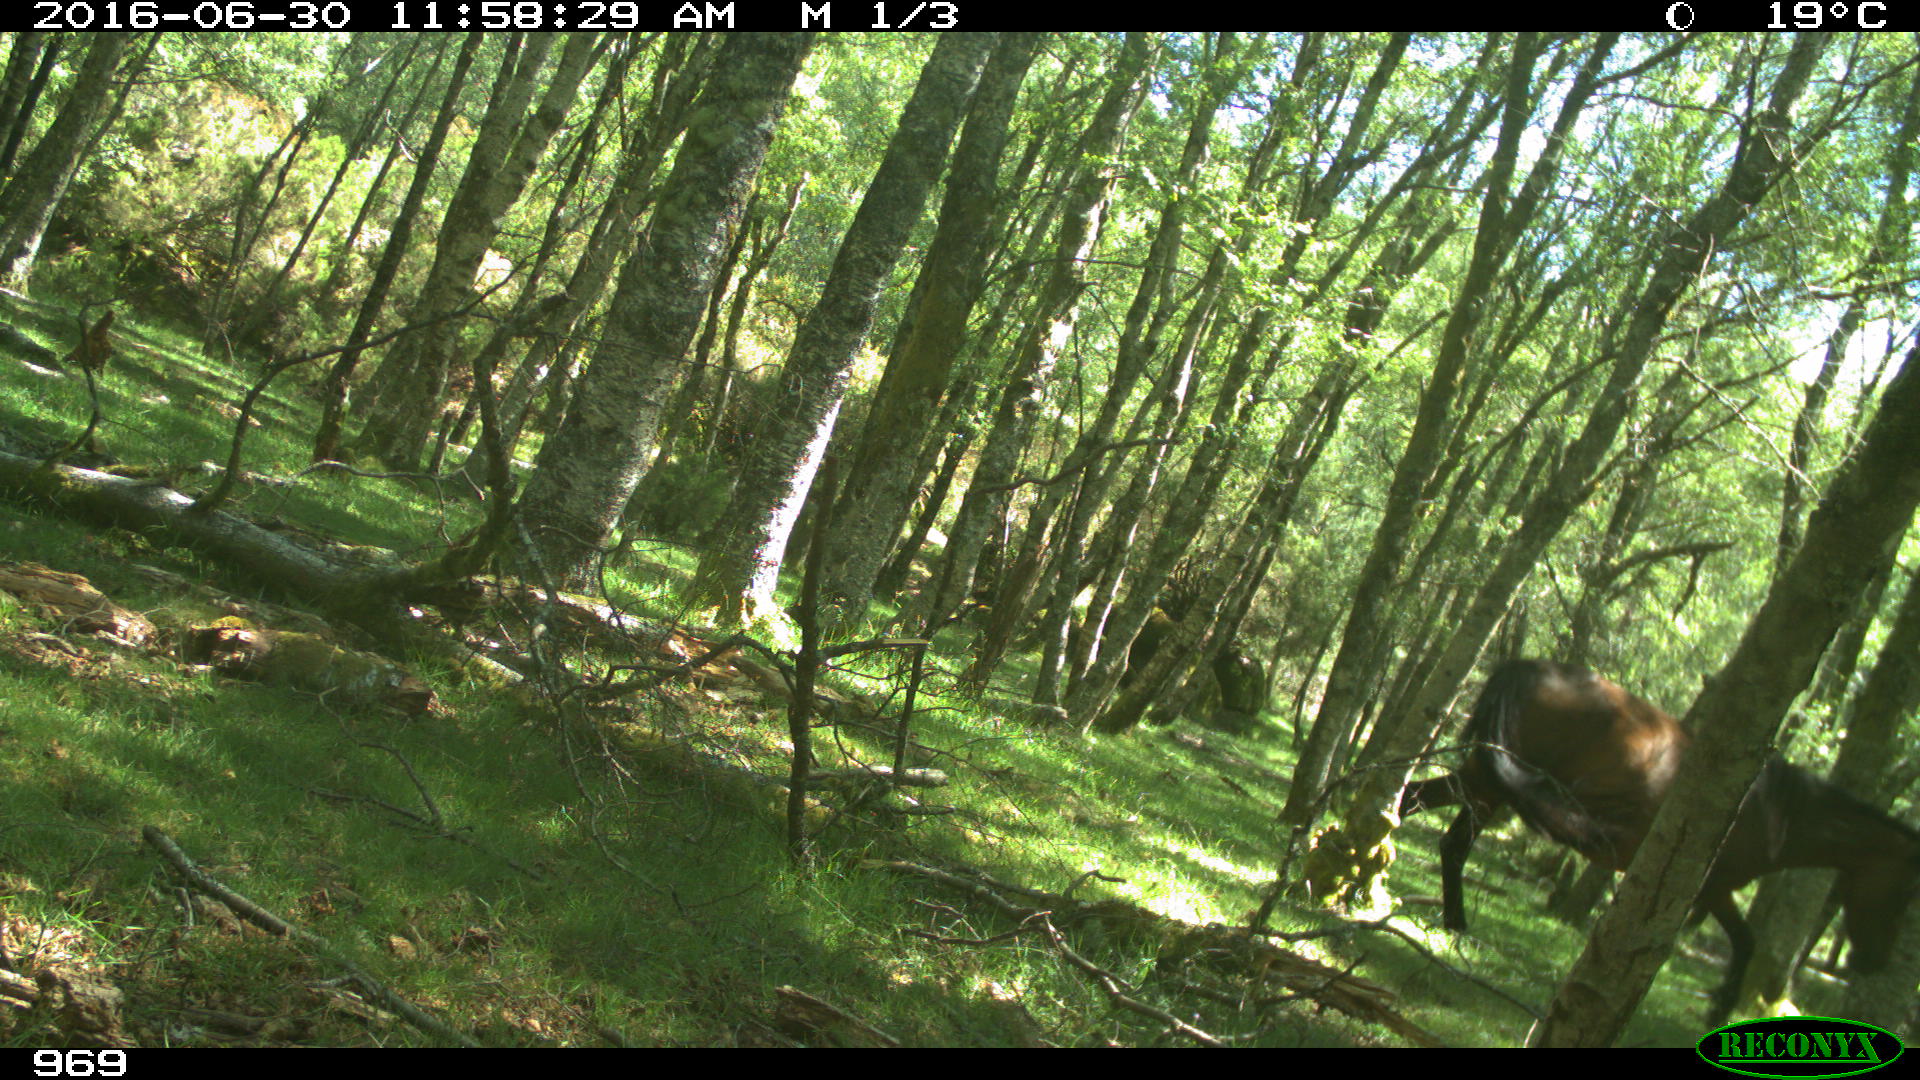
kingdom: Animalia
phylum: Chordata
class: Mammalia
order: Perissodactyla
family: Equidae
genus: Equus
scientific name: Equus caballus
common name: Horse
